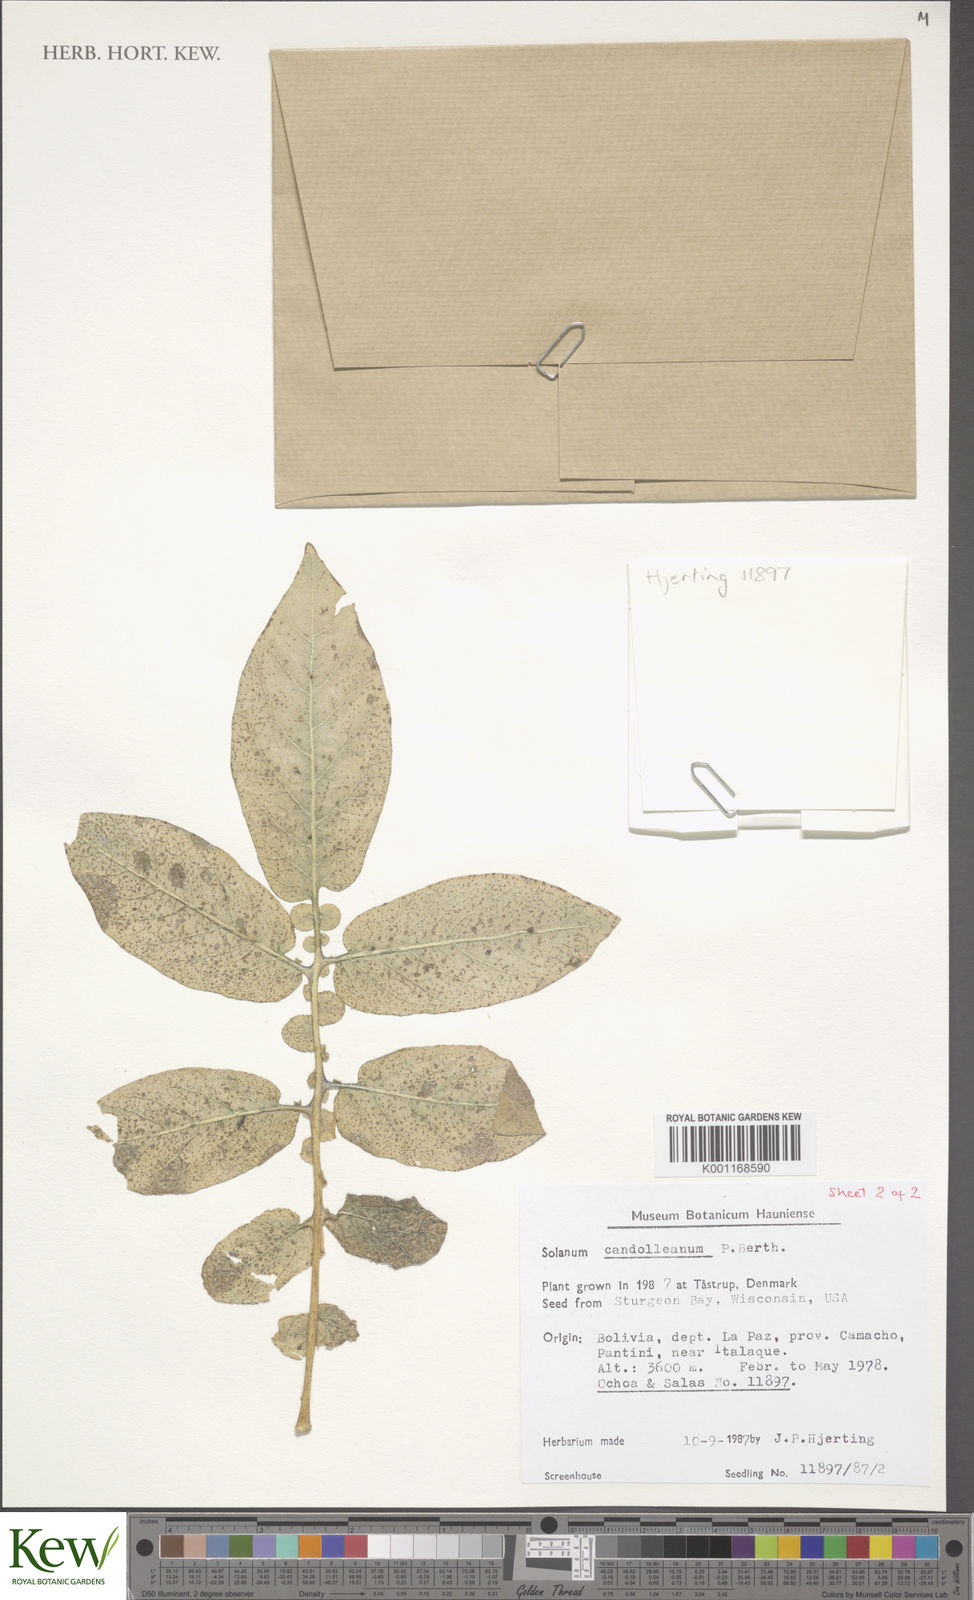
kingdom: Plantae
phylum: Tracheophyta
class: Magnoliopsida
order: Solanales
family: Solanaceae
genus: Solanum
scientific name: Solanum candolleanum
